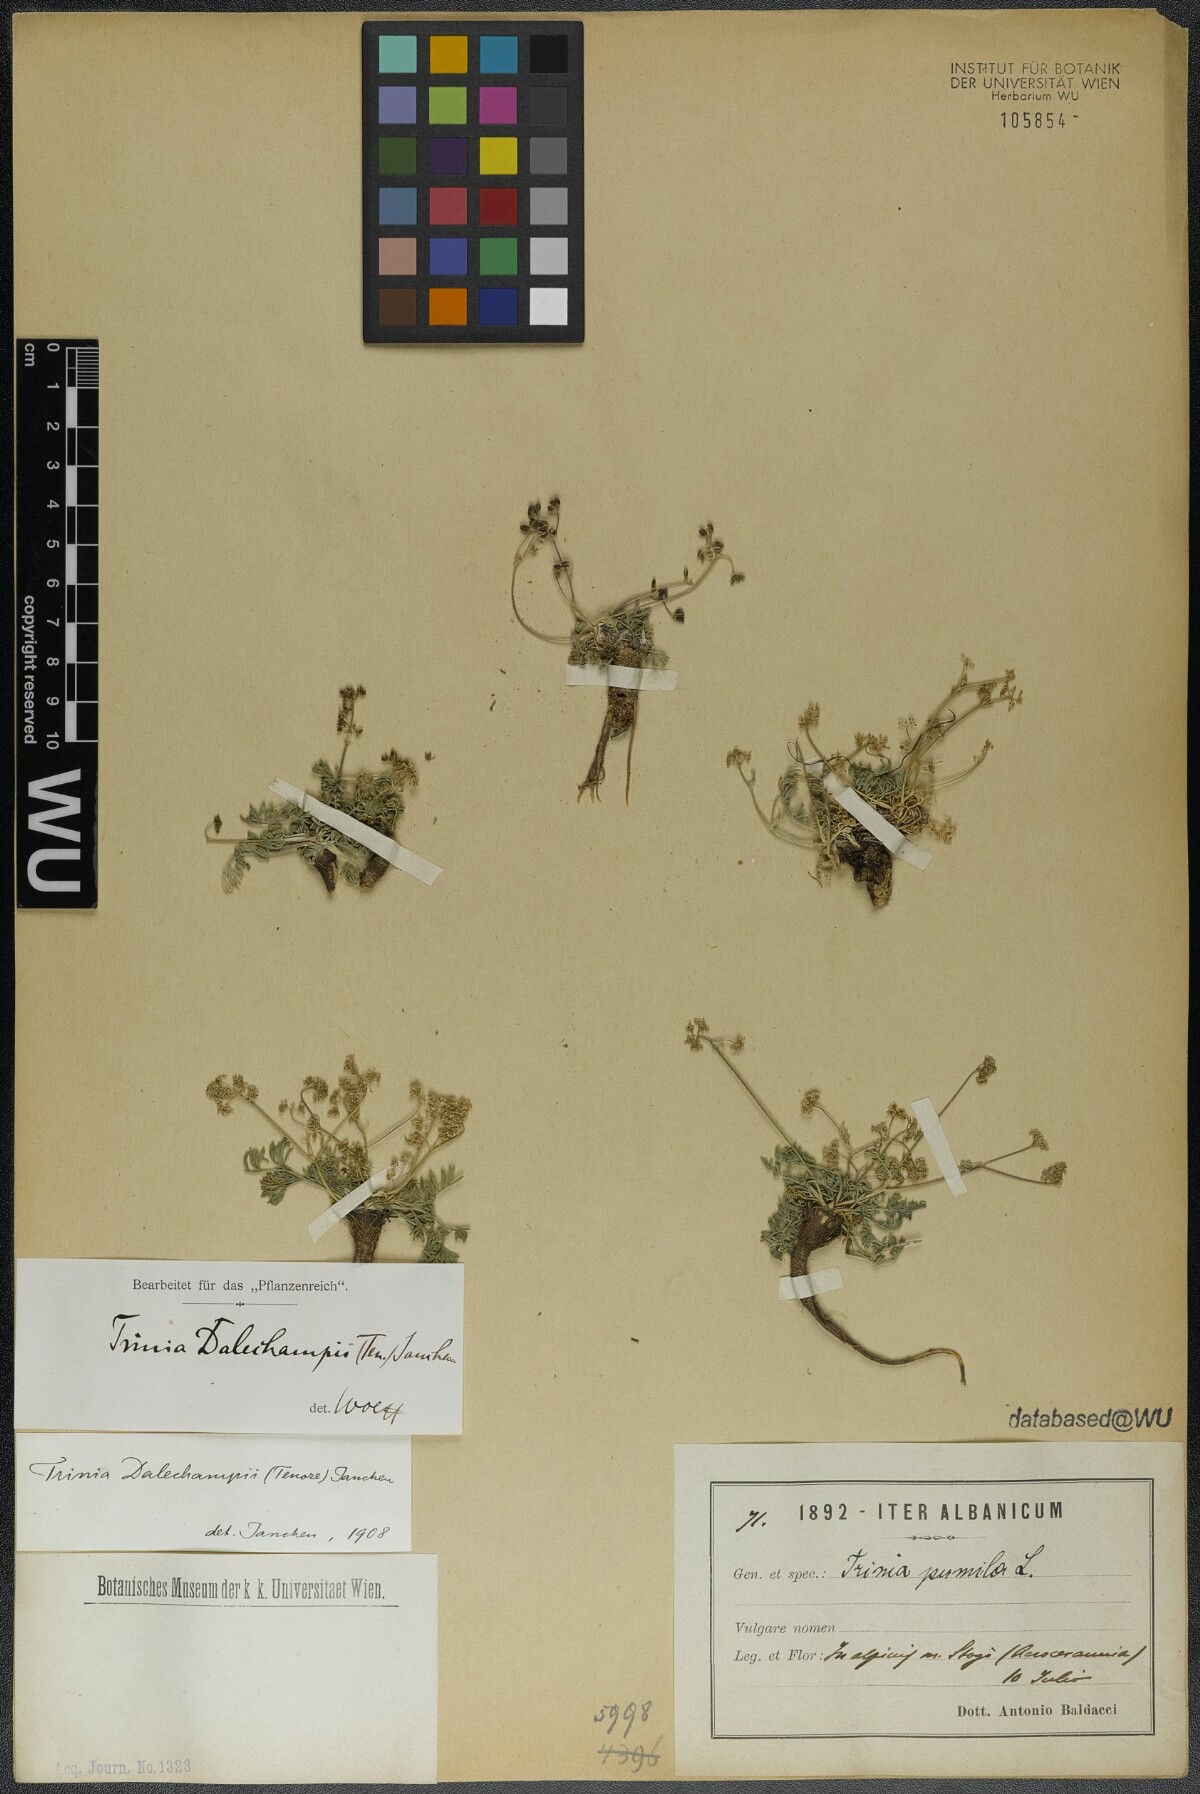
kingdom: Plantae
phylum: Tracheophyta
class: Magnoliopsida
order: Apiales
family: Apiaceae
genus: Trinia
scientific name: Trinia dalechampii
